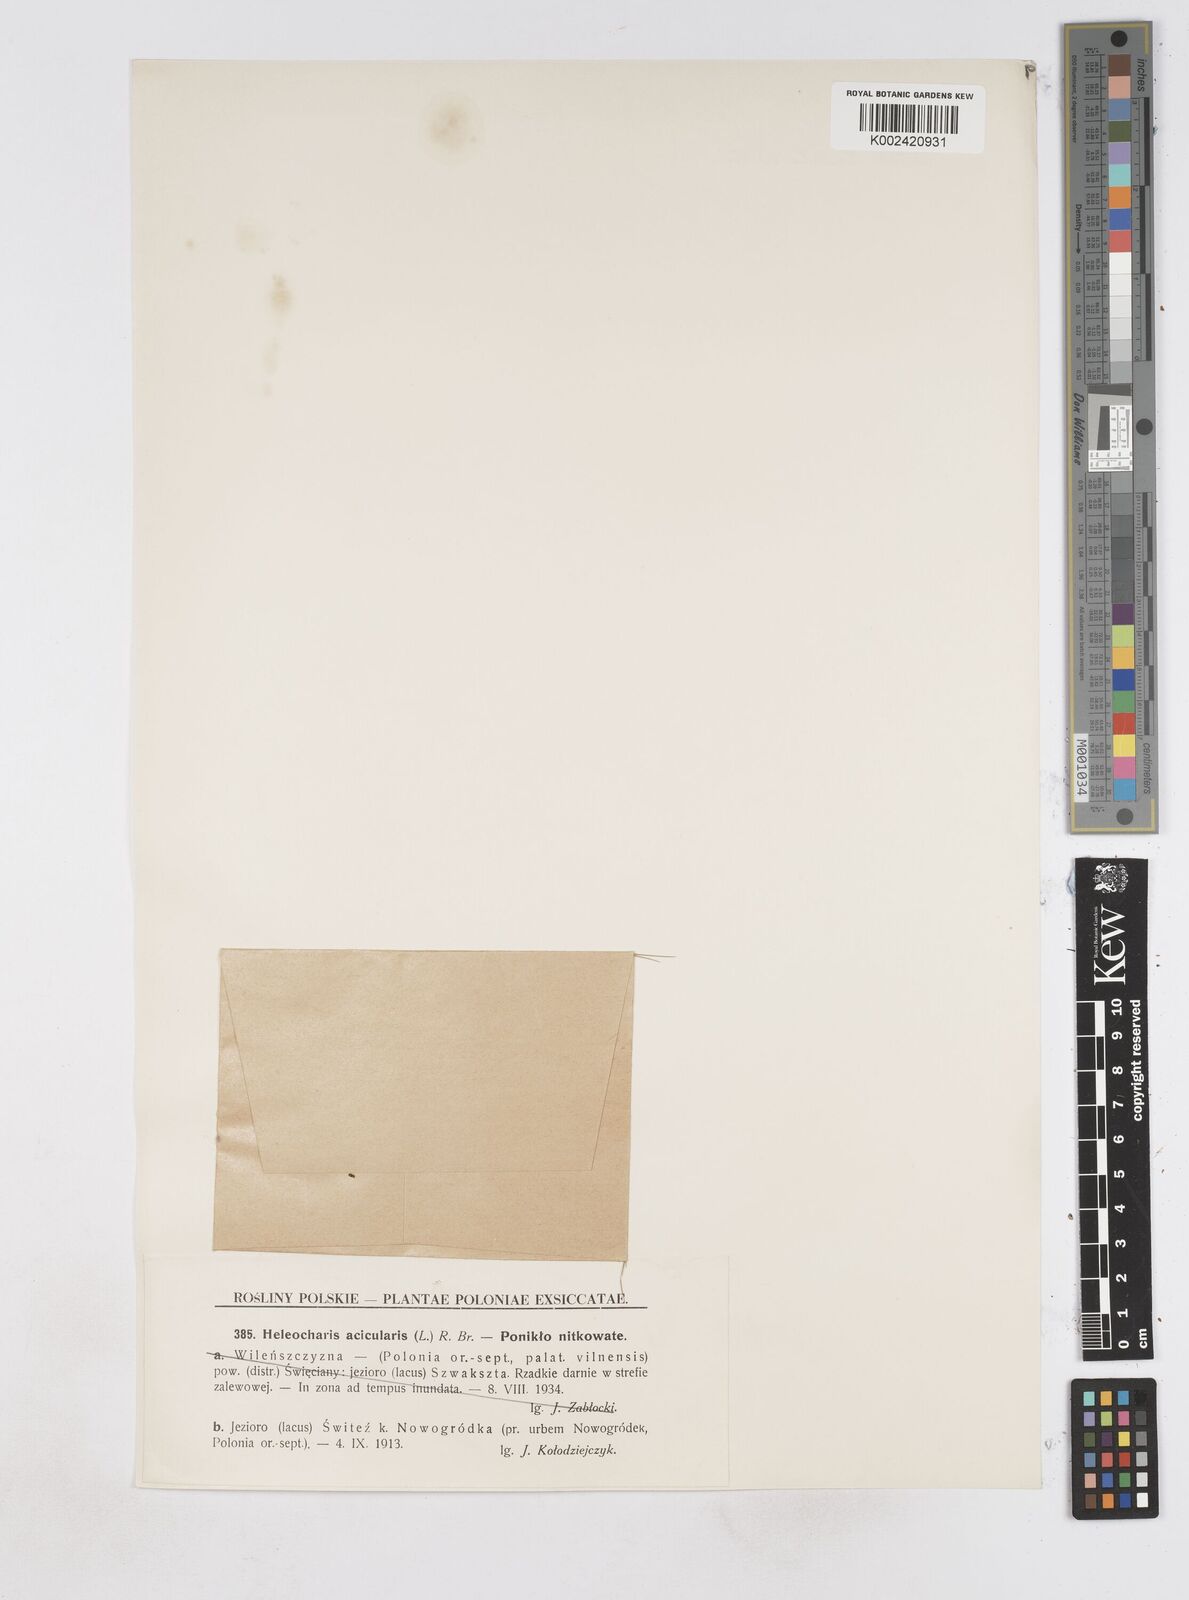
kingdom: Plantae
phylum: Tracheophyta
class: Liliopsida
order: Poales
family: Cyperaceae
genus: Eleocharis
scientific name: Eleocharis acicularis
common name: Needle spike-rush
